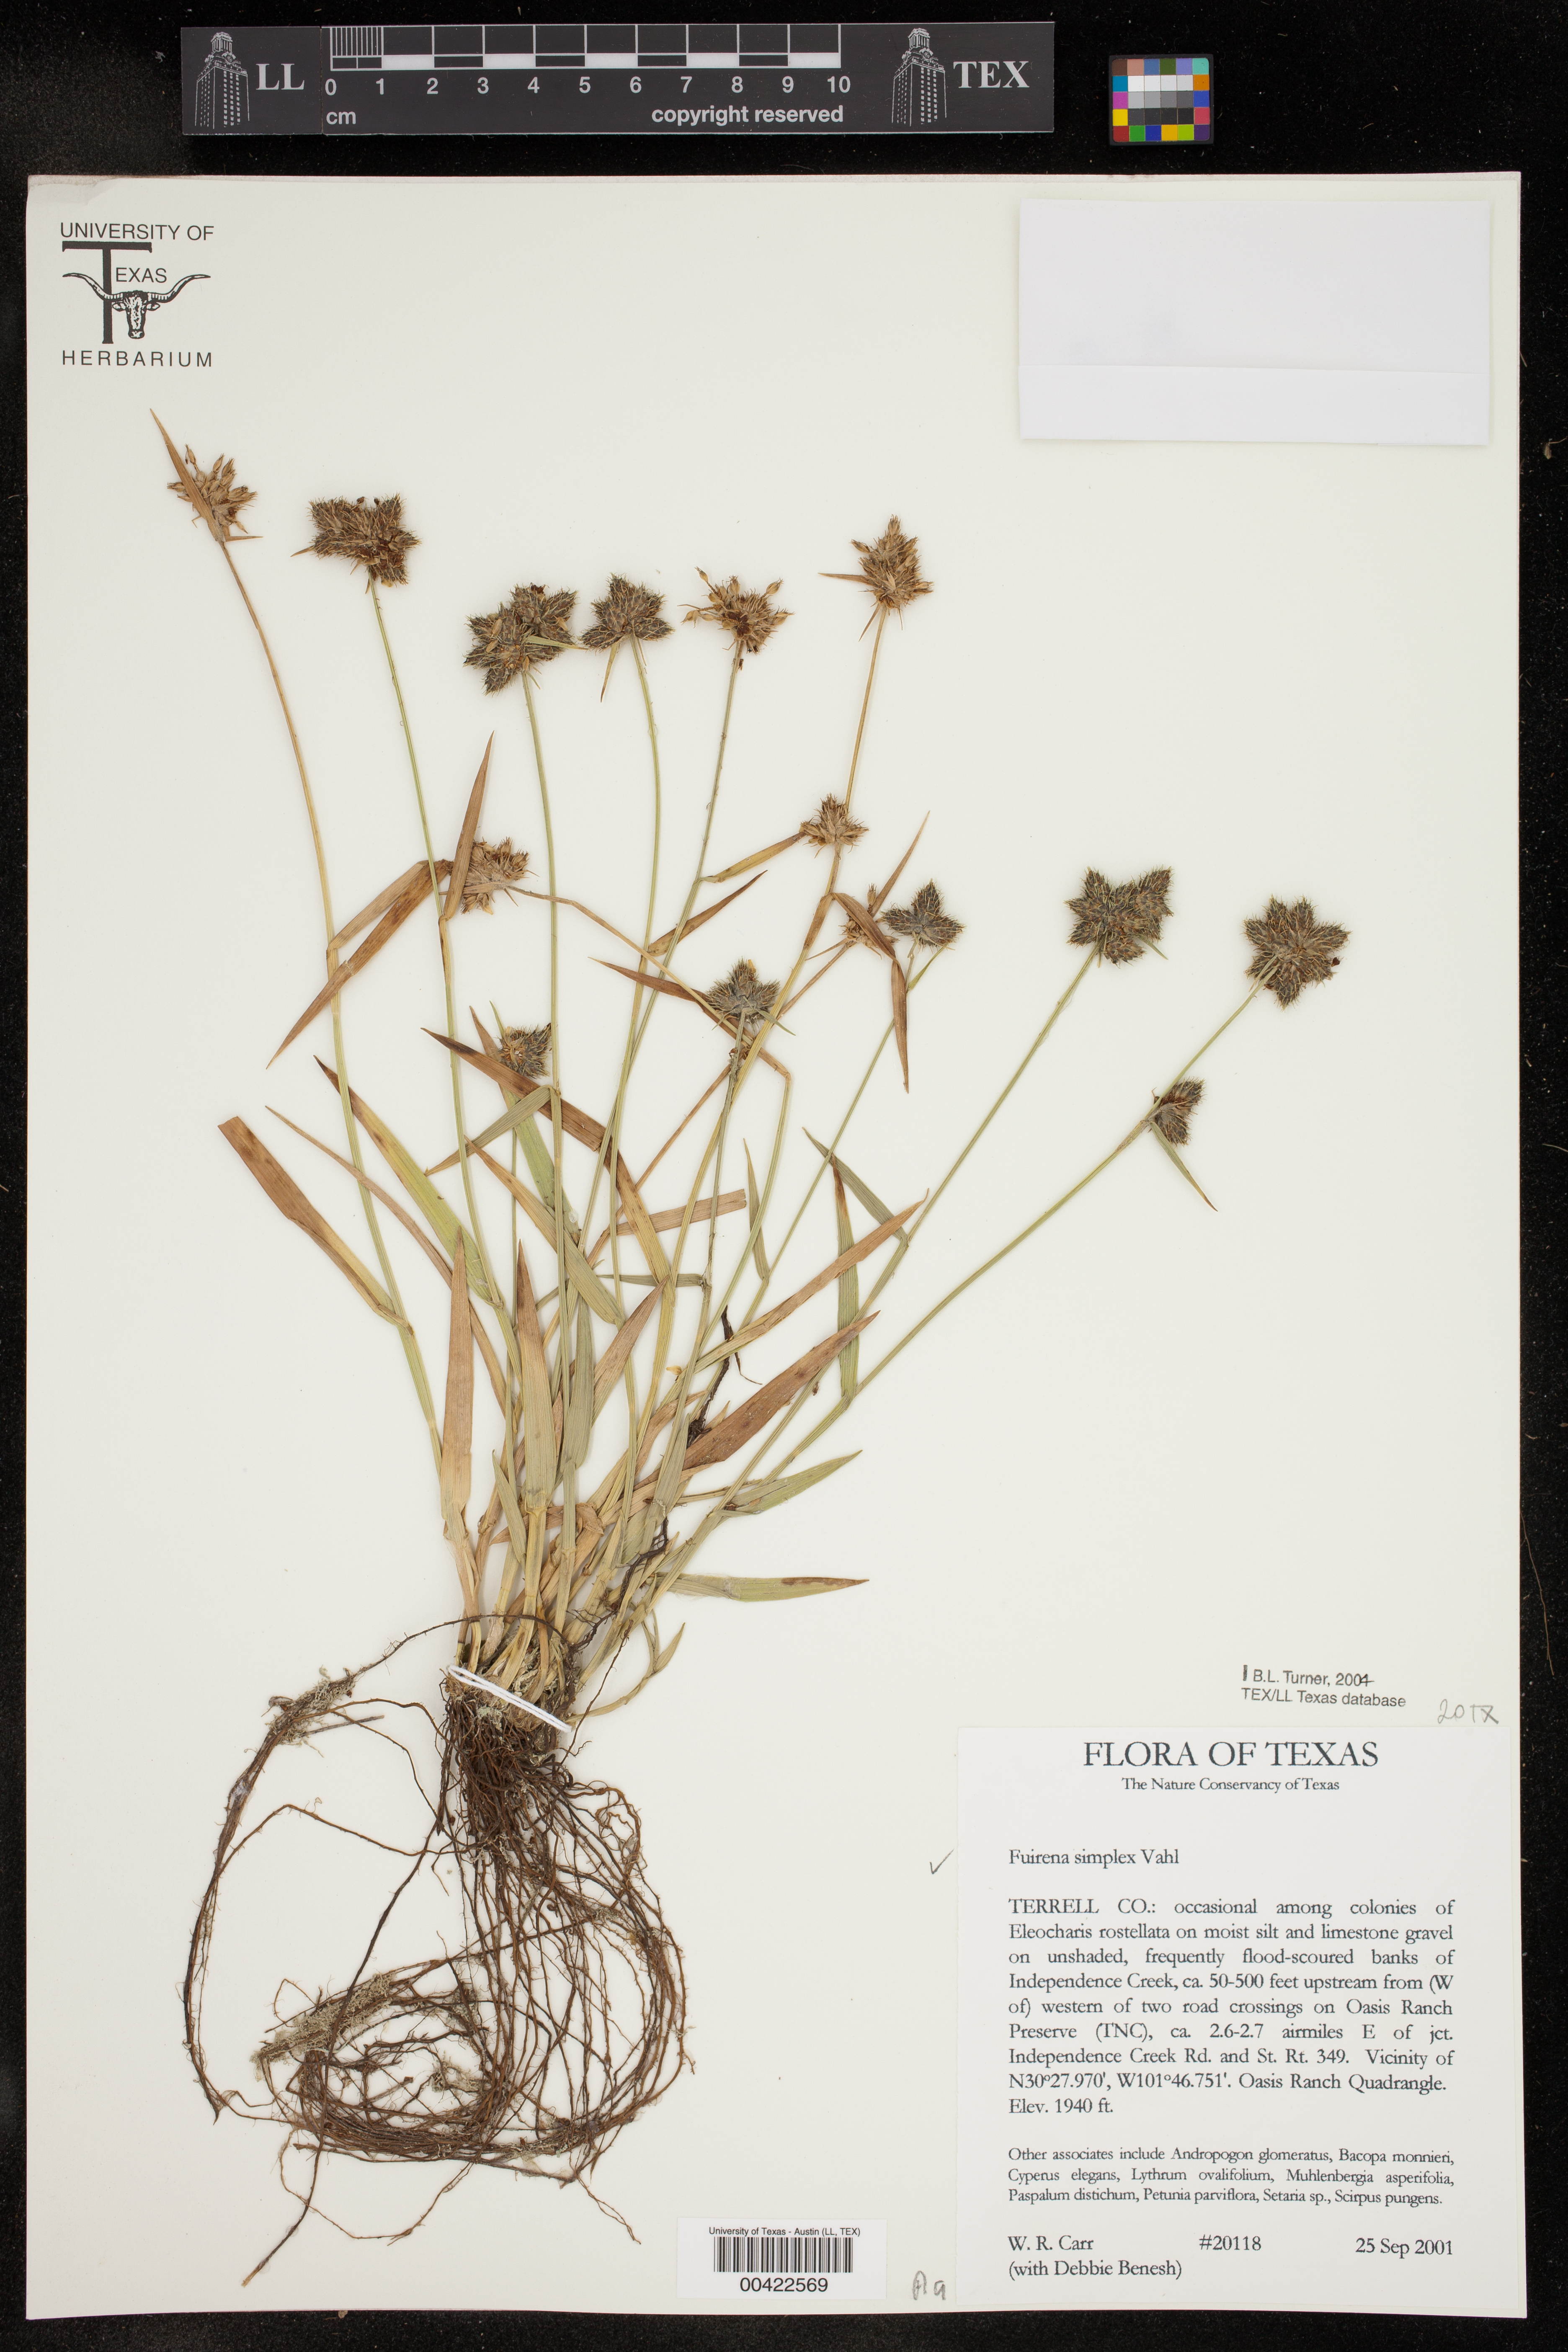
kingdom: Plantae
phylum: Tracheophyta
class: Liliopsida
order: Poales
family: Cyperaceae
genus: Fuirena
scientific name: Fuirena simplex
